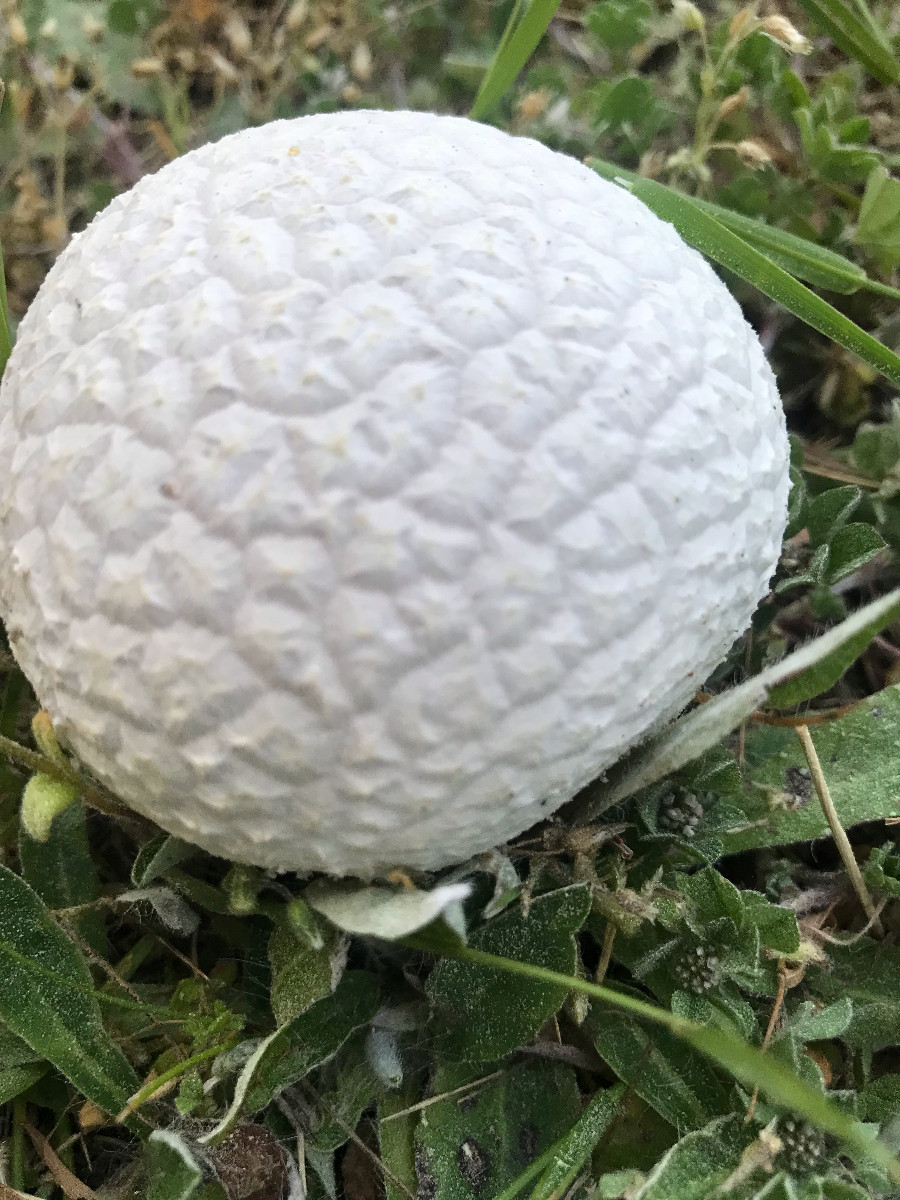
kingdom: Fungi
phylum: Basidiomycota
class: Agaricomycetes
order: Agaricales
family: Lycoperdaceae
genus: Bovistella
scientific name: Bovistella utriformis
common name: skællet støvbold
